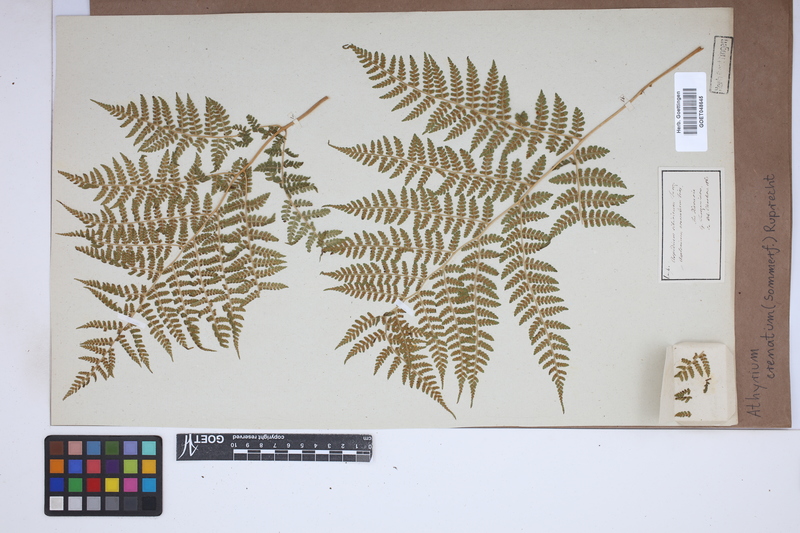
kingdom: Plantae
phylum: Tracheophyta
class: Polypodiopsida
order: Polypodiales
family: Athyriaceae
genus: Diplazium
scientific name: Diplazium sibiricum
